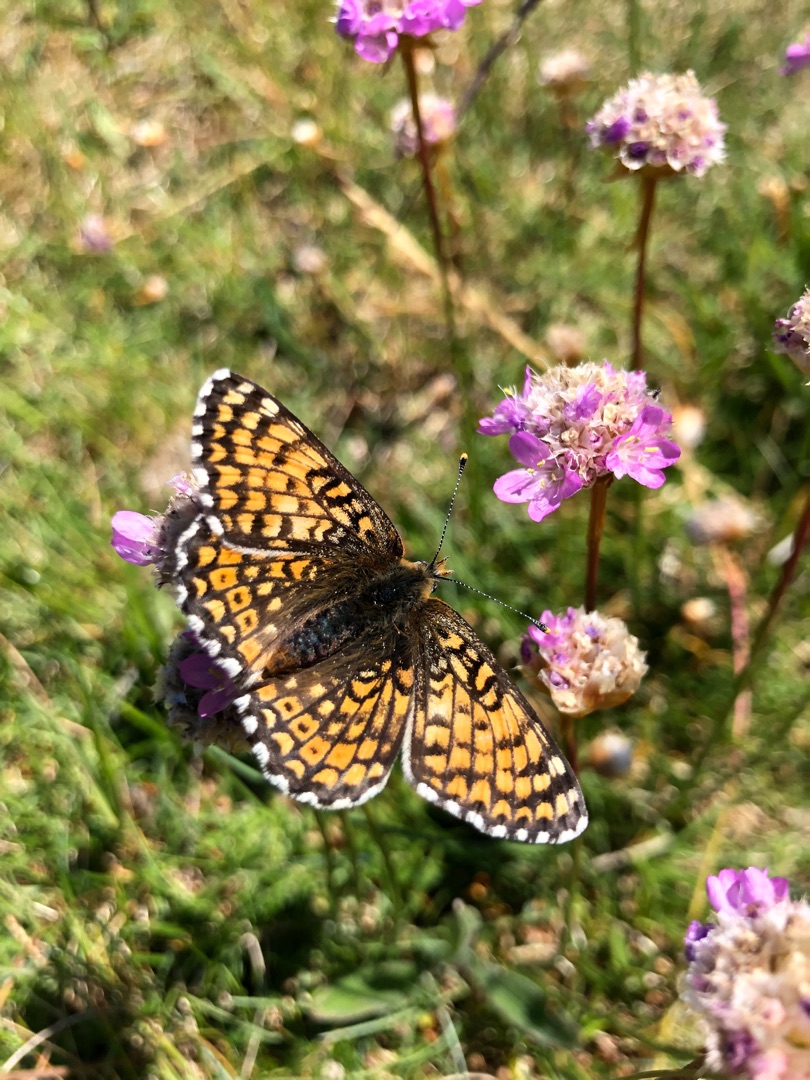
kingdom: Animalia
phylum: Arthropoda
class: Insecta
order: Lepidoptera
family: Nymphalidae
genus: Melitaea
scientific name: Melitaea cinxia
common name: Okkergul pletvinge
